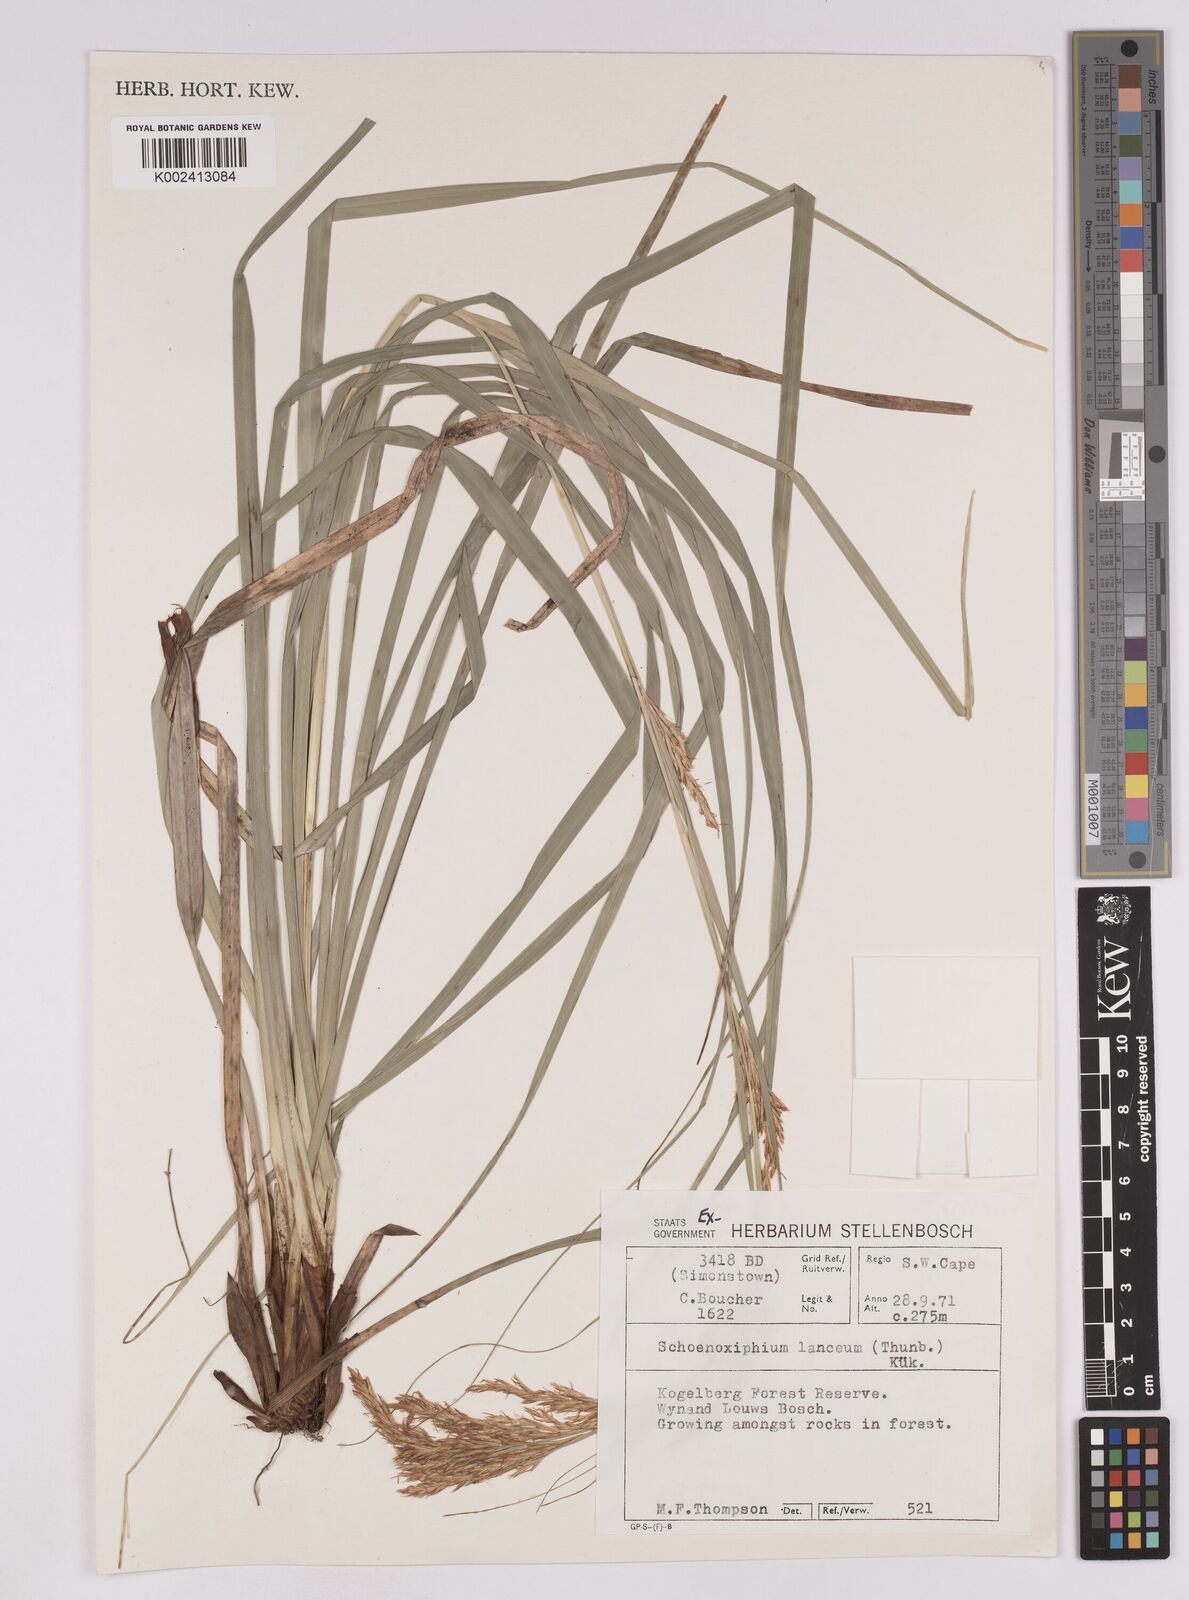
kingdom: Plantae
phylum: Tracheophyta
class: Liliopsida
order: Poales
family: Cyperaceae
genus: Carex
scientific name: Carex lancea
